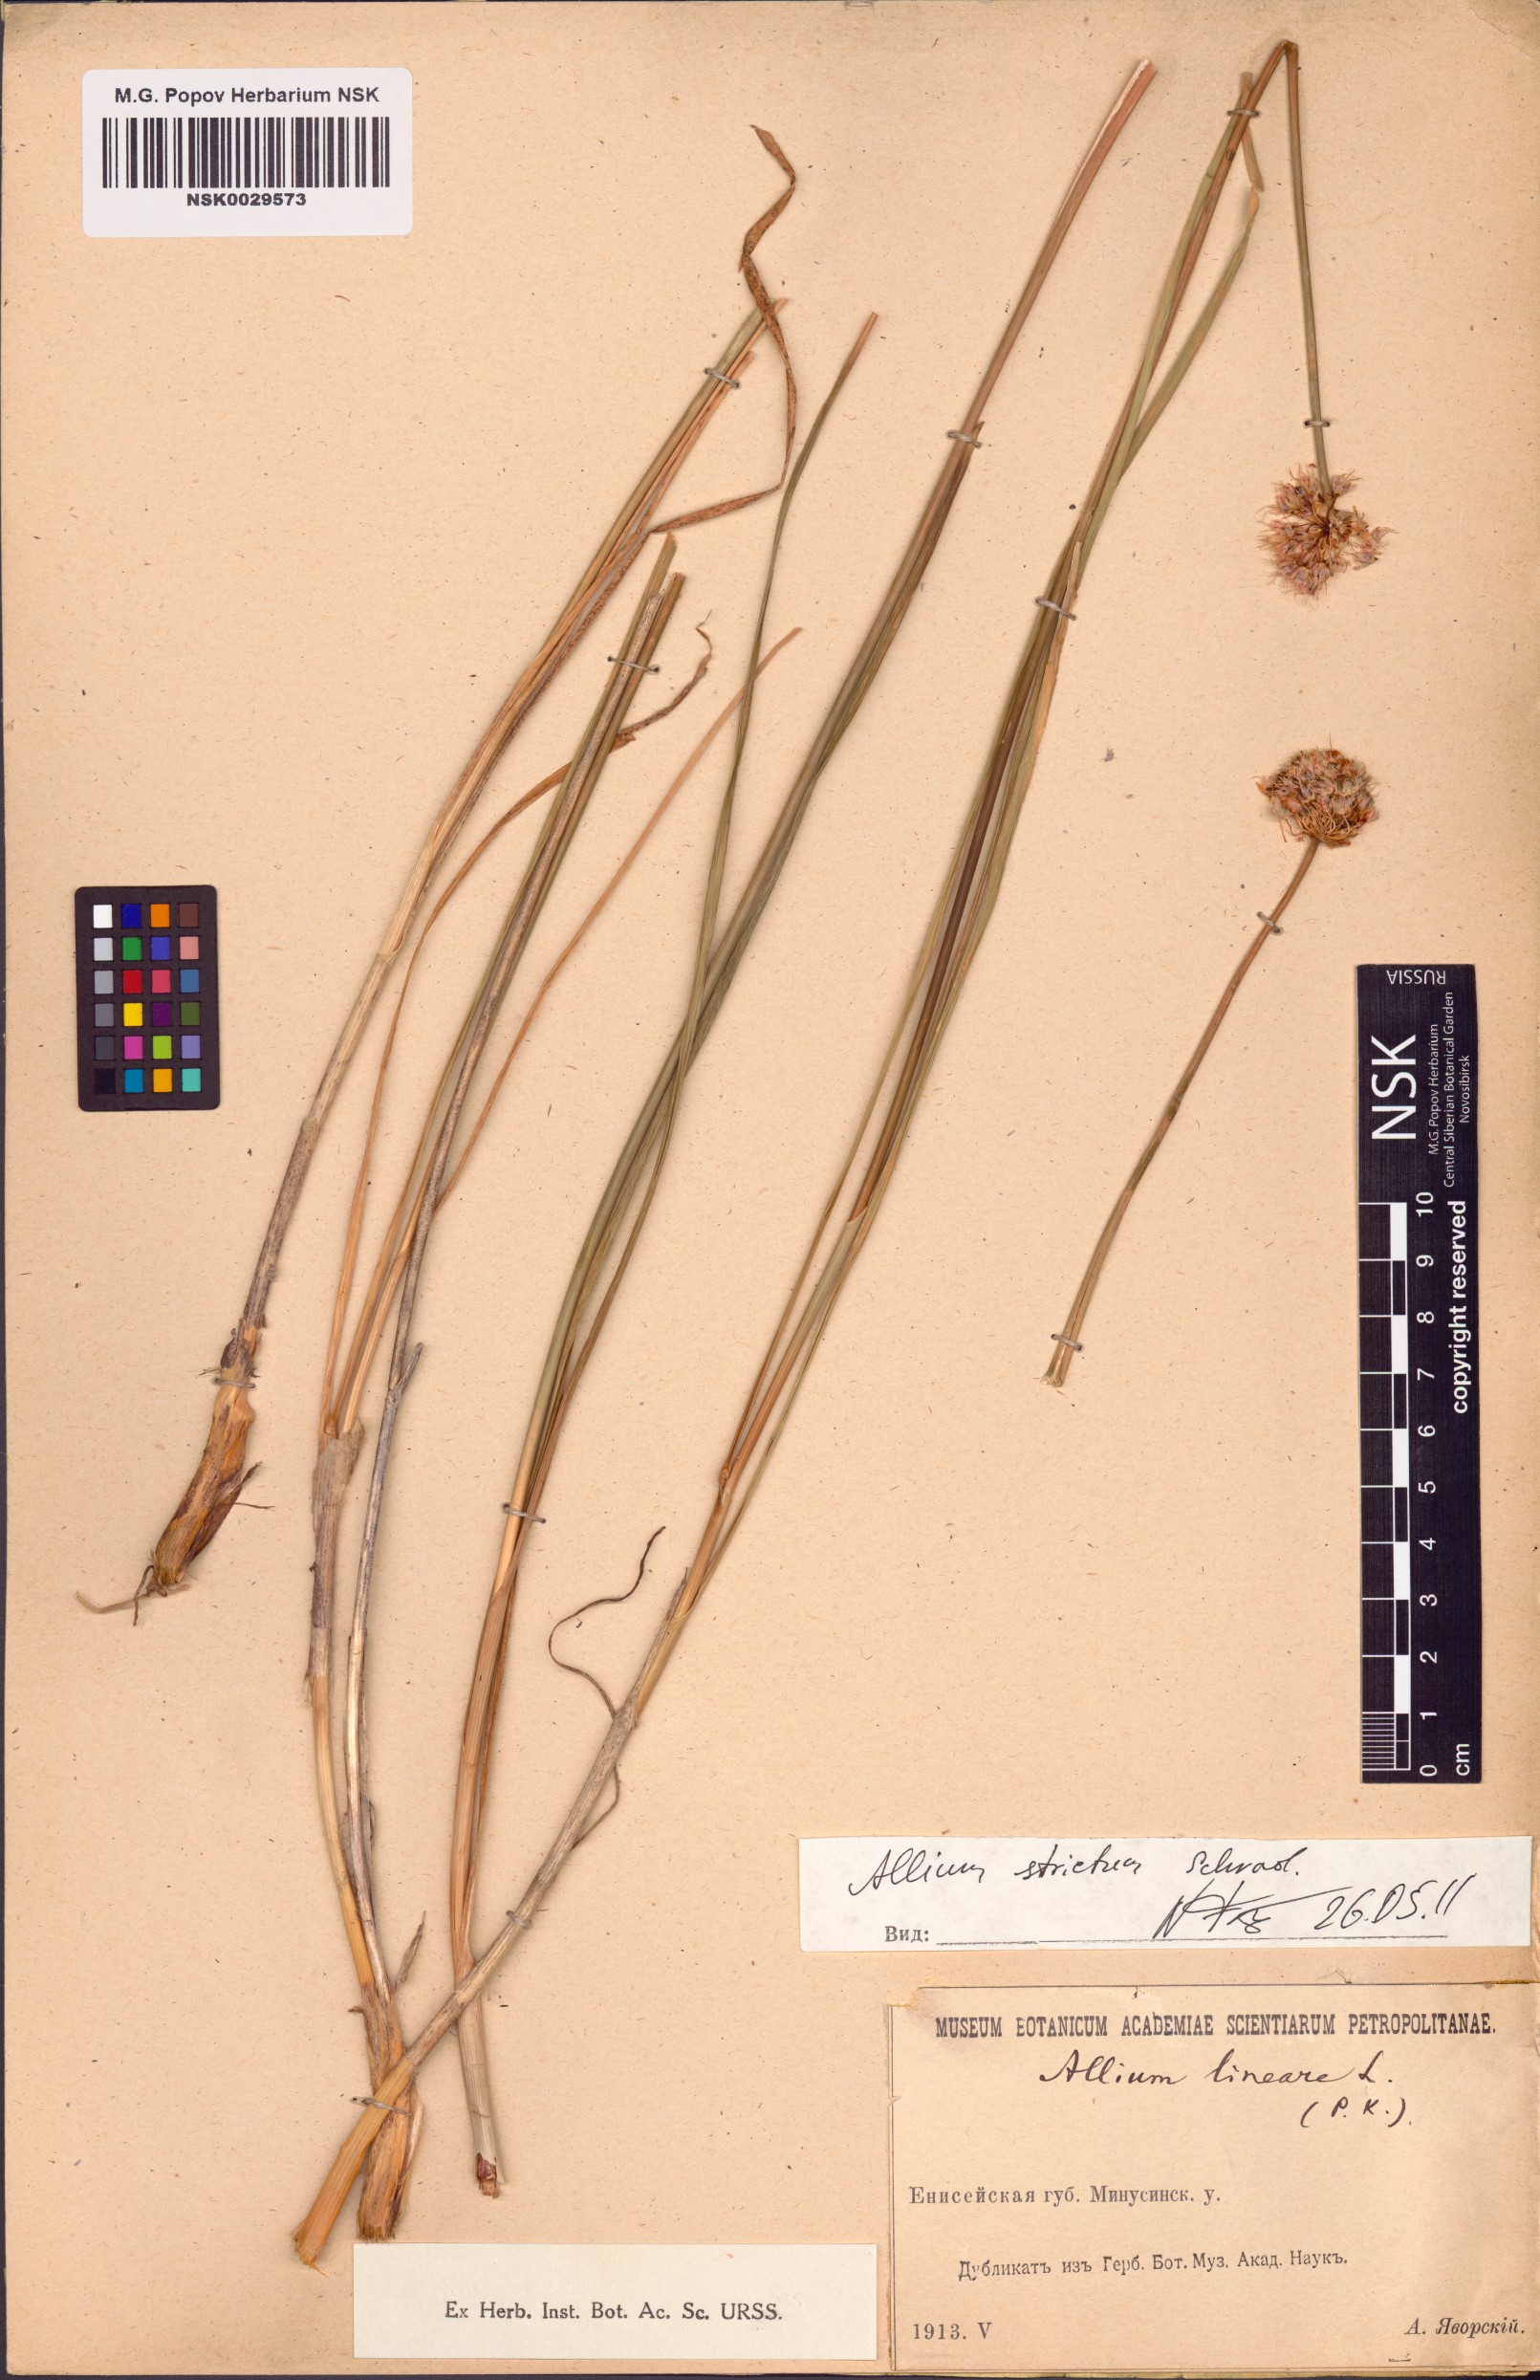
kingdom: Plantae
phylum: Tracheophyta
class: Liliopsida
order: Asparagales
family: Amaryllidaceae
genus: Allium
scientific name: Allium strictum
